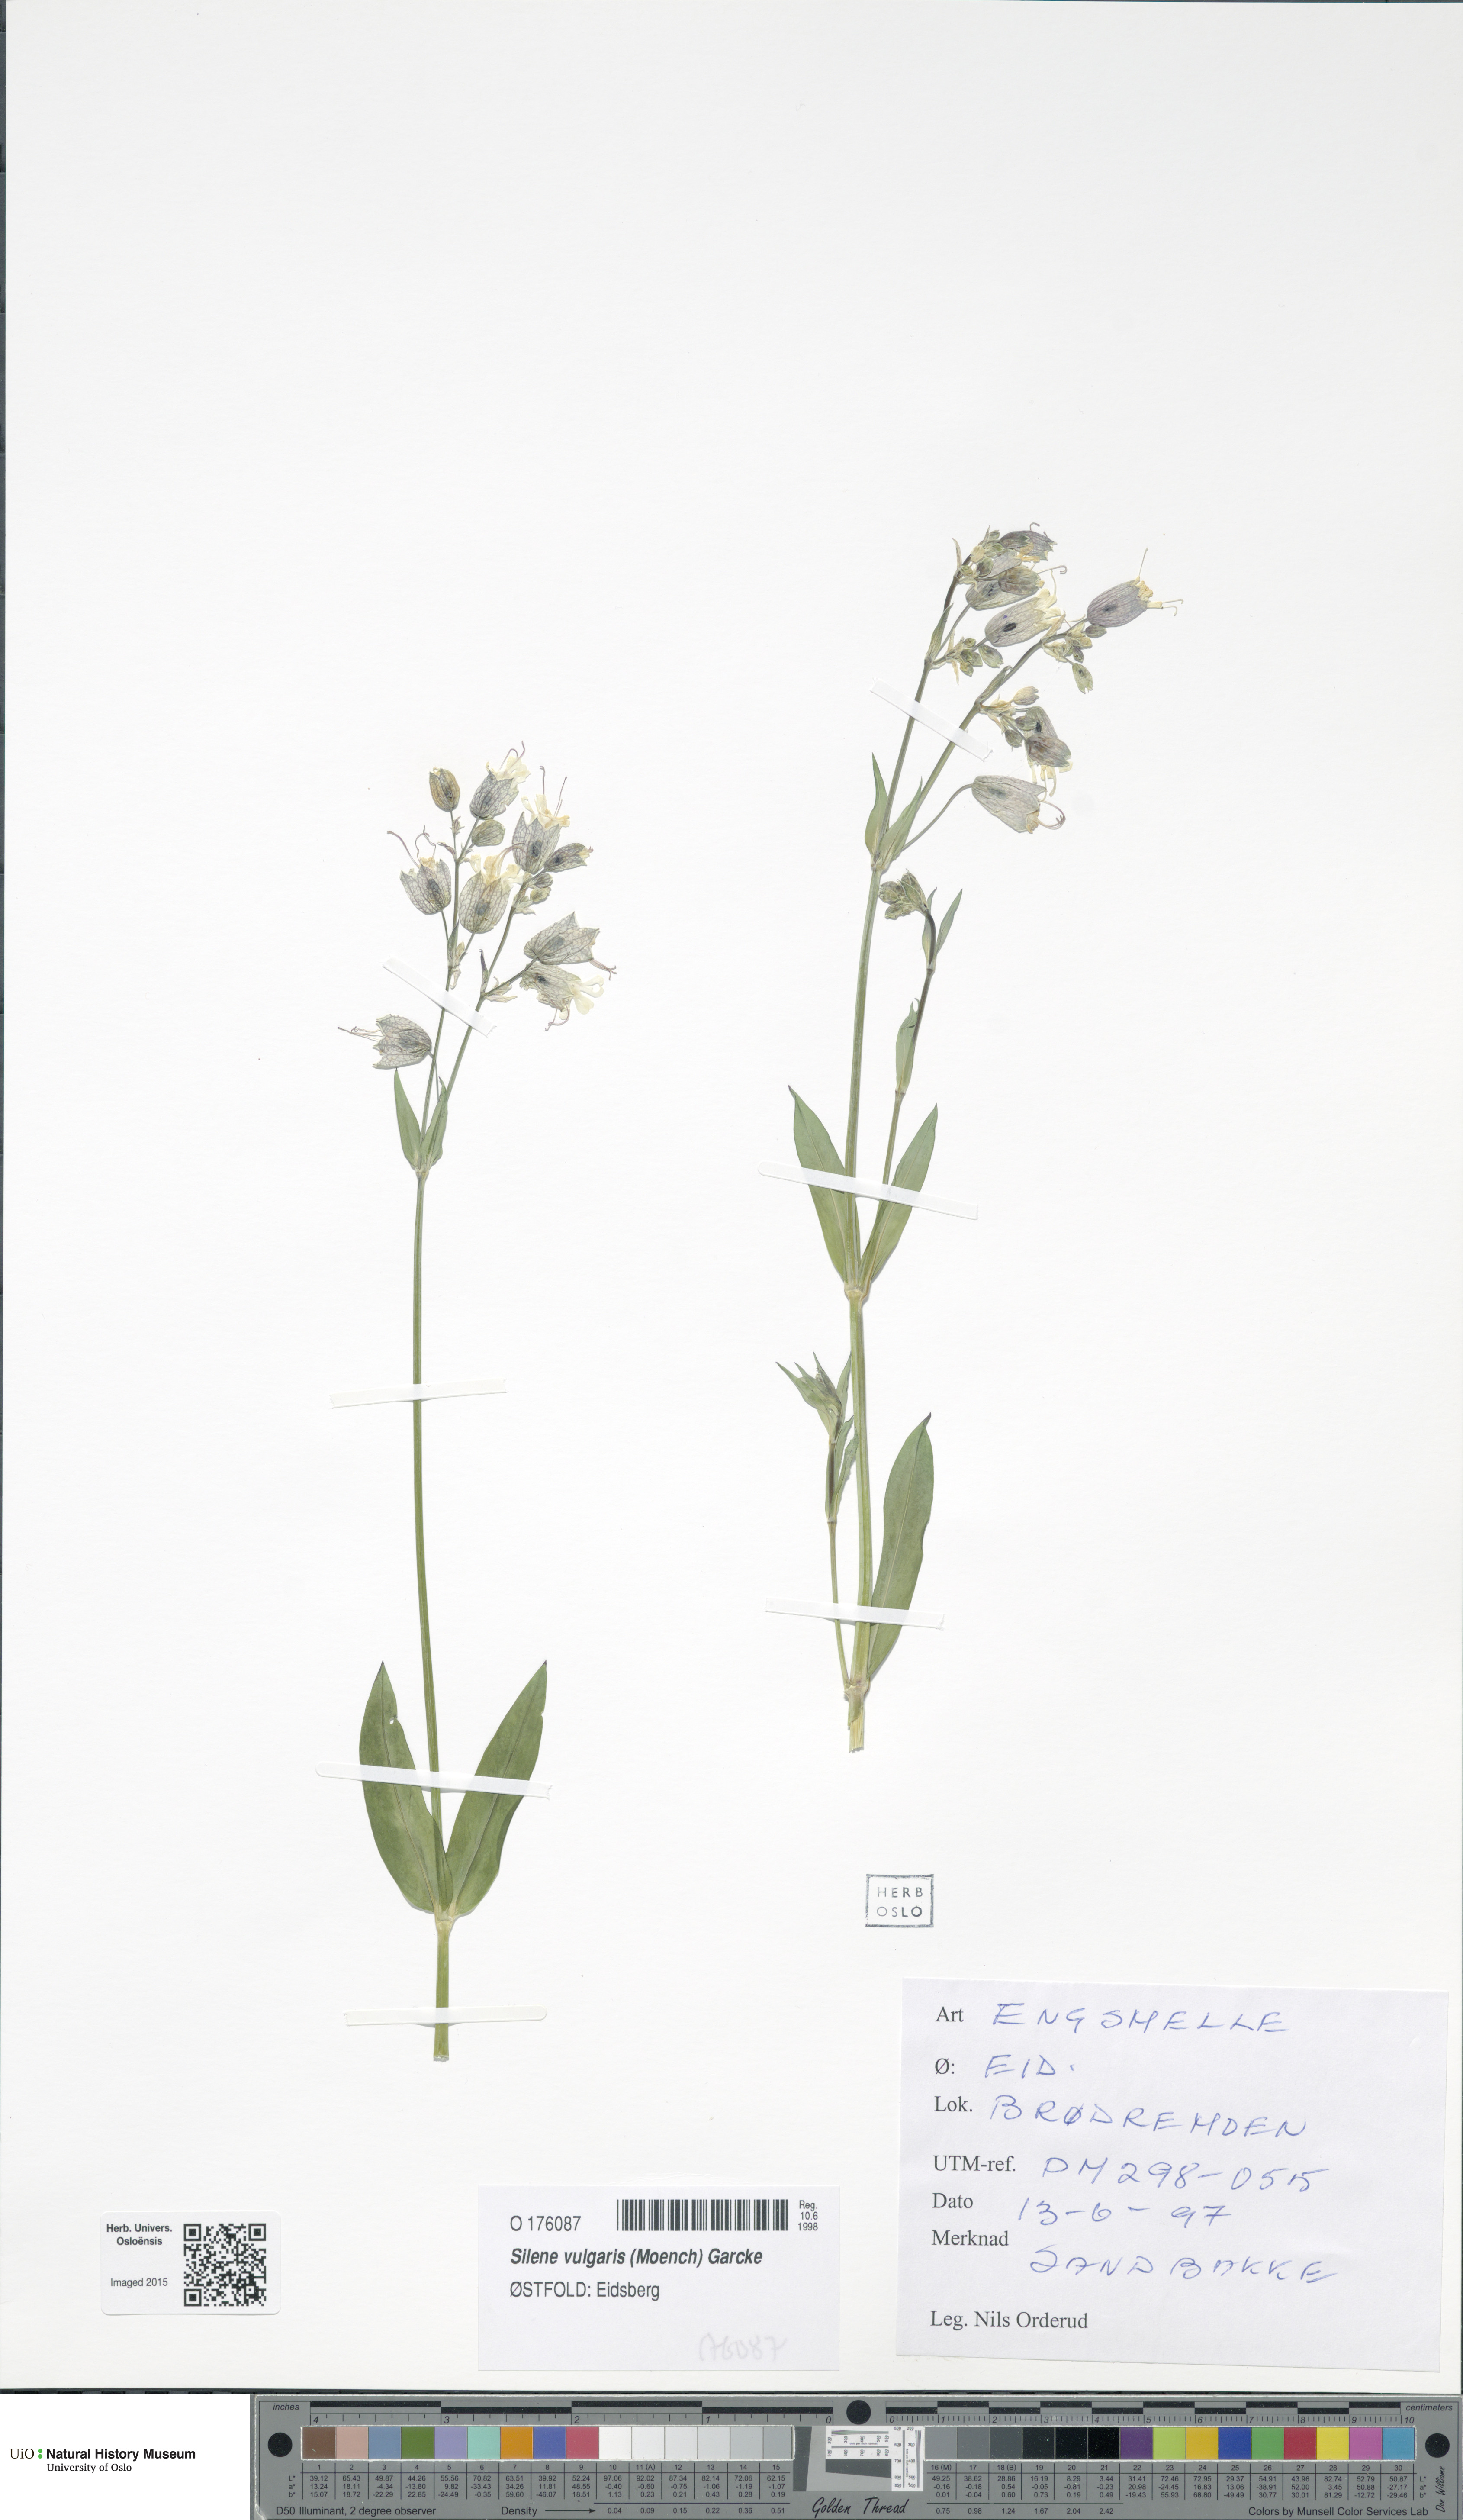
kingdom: Plantae
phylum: Tracheophyta
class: Magnoliopsida
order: Caryophyllales
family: Caryophyllaceae
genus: Silene
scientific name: Silene vulgaris
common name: Bladder campion
